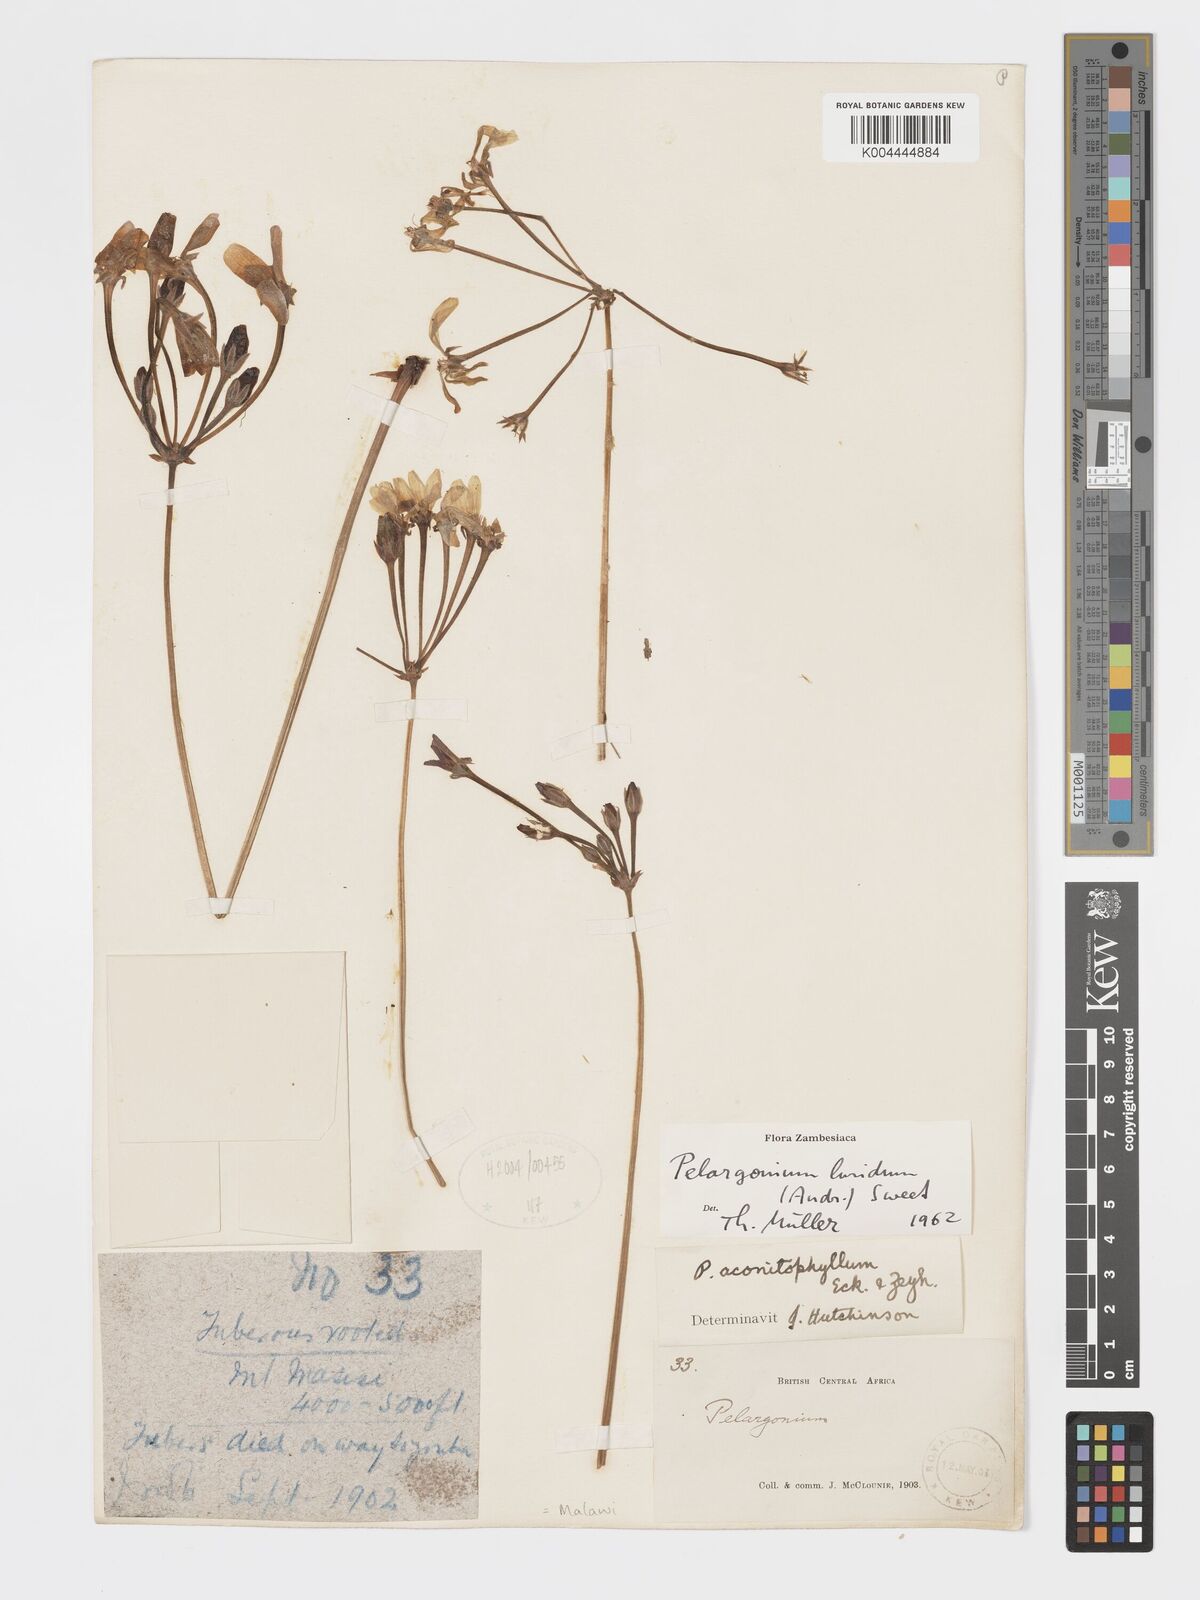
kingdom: Plantae
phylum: Tracheophyta
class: Magnoliopsida
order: Geraniales
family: Geraniaceae
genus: Pelargonium
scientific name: Pelargonium luridum
